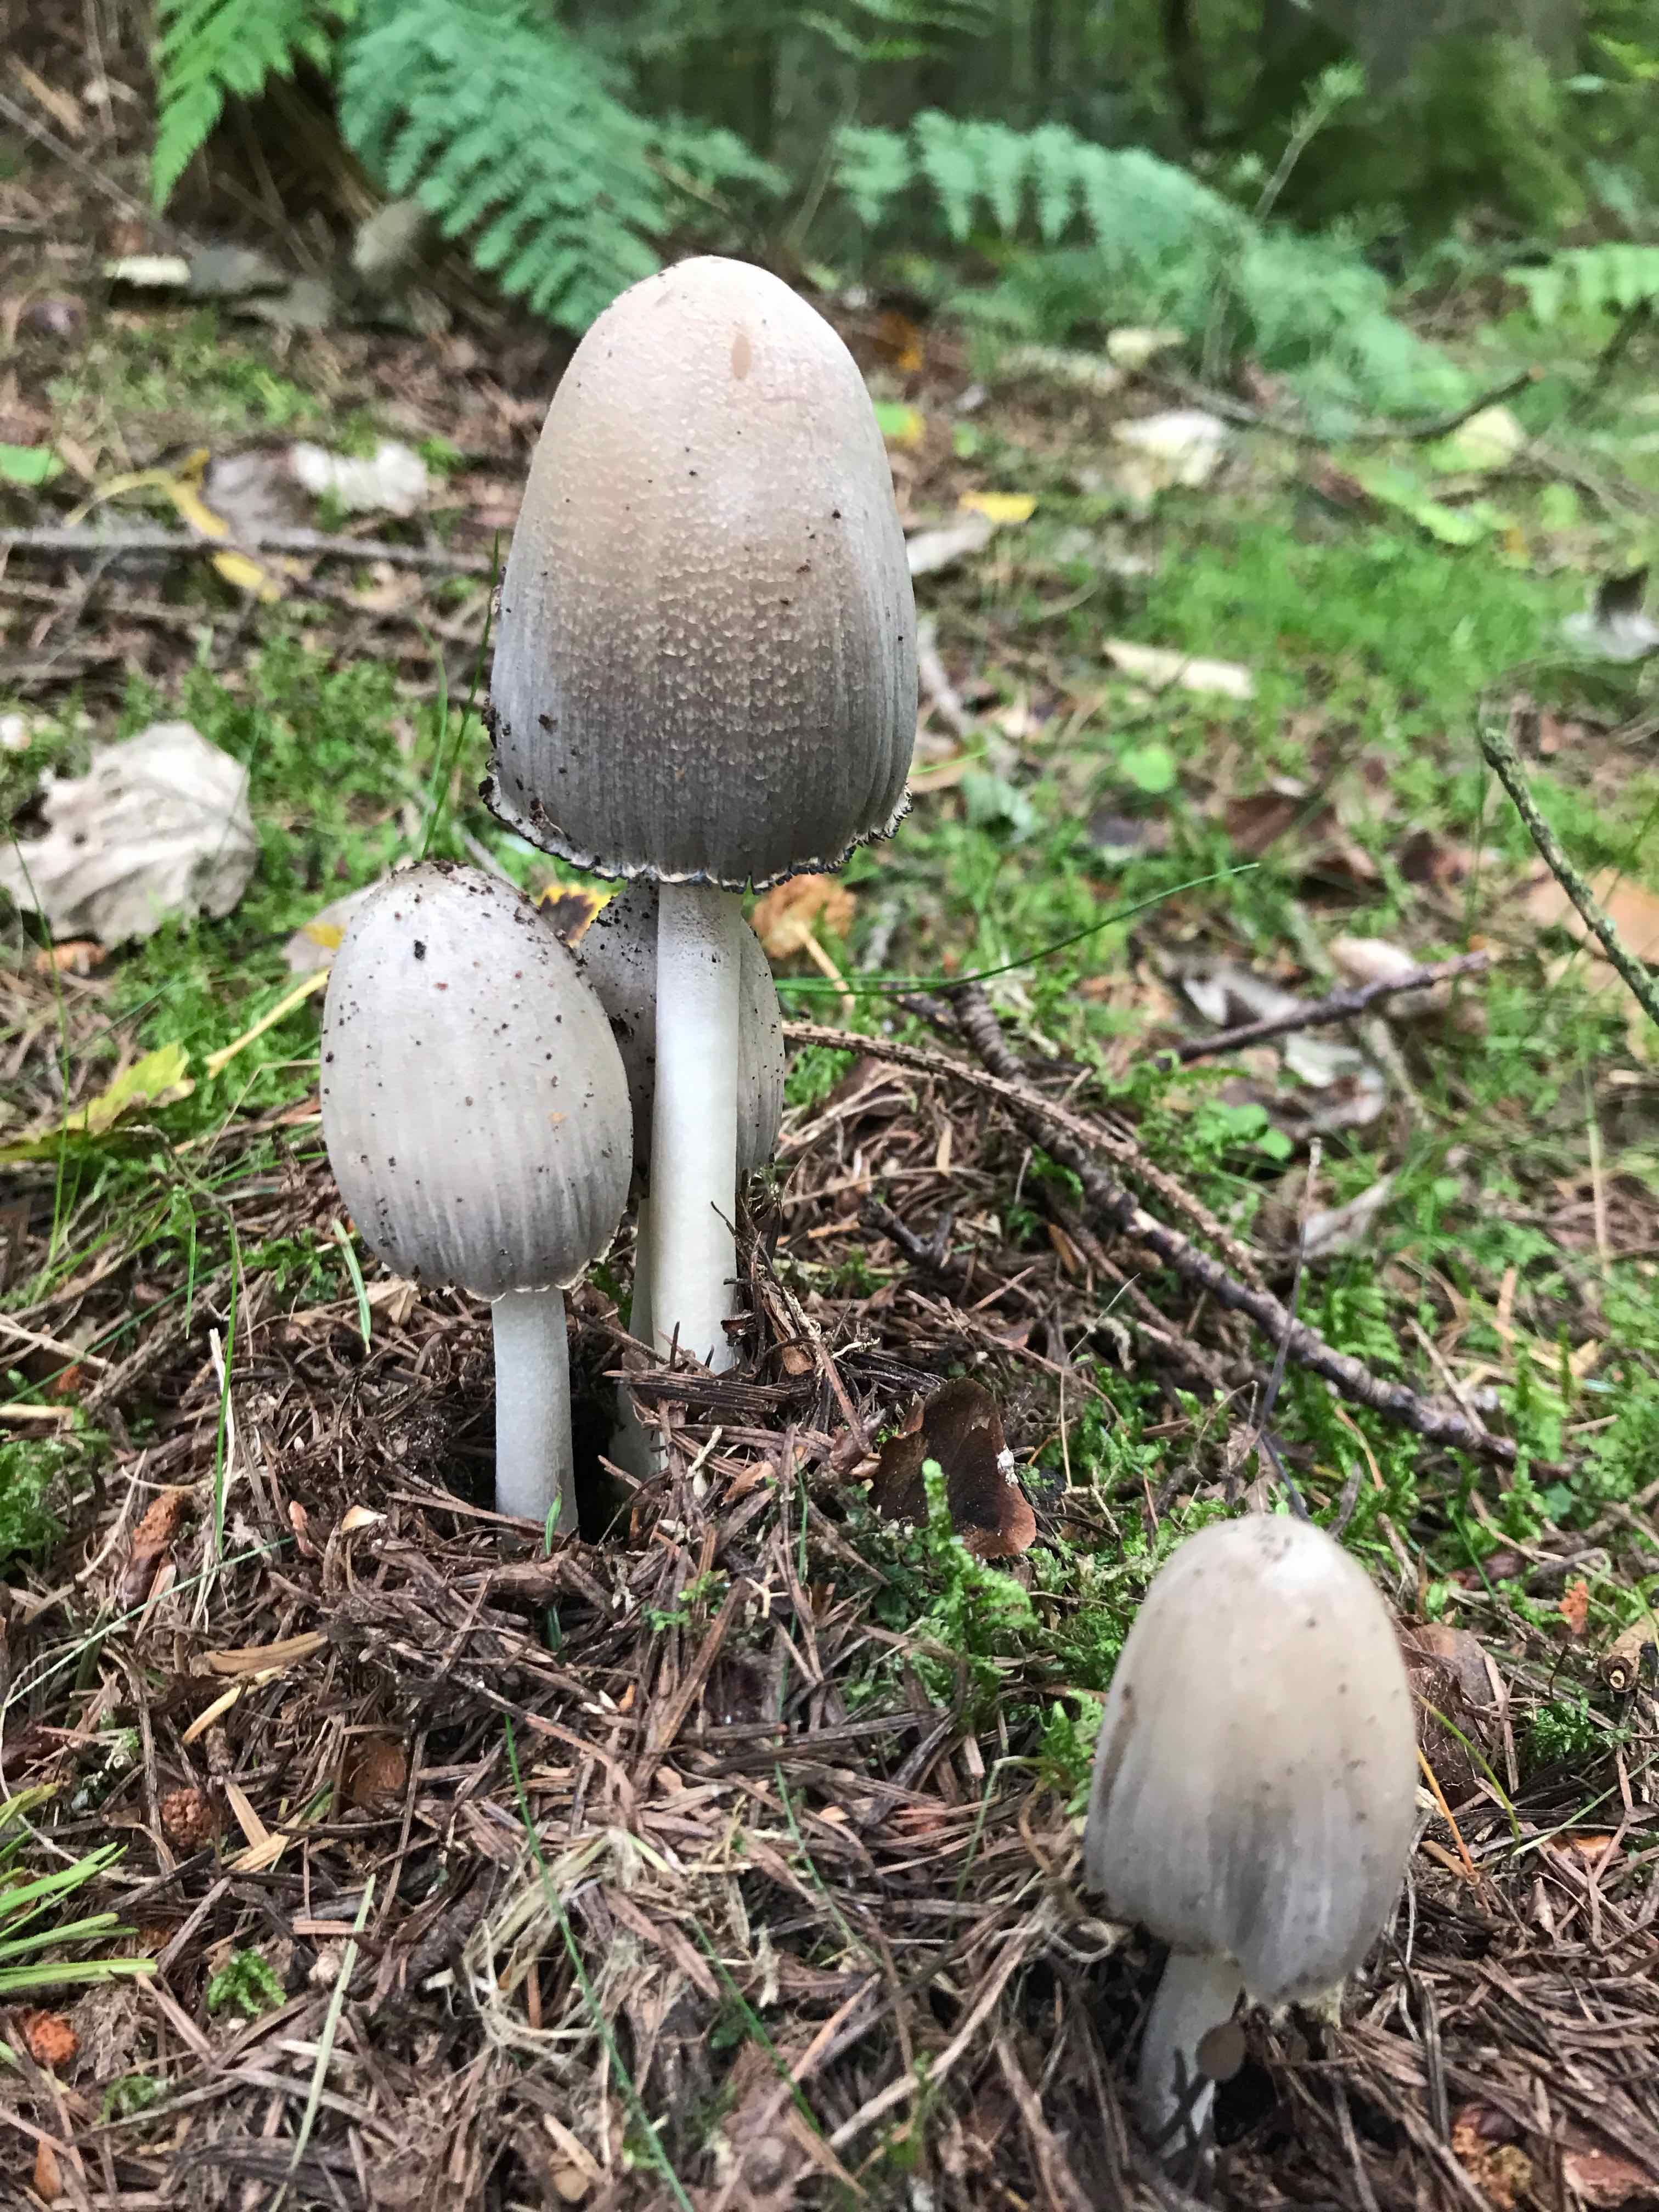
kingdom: Fungi
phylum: Basidiomycota
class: Agaricomycetes
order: Agaricales
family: Psathyrellaceae
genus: Coprinopsis
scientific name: Coprinopsis atramentaria
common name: almindelig blækhat
